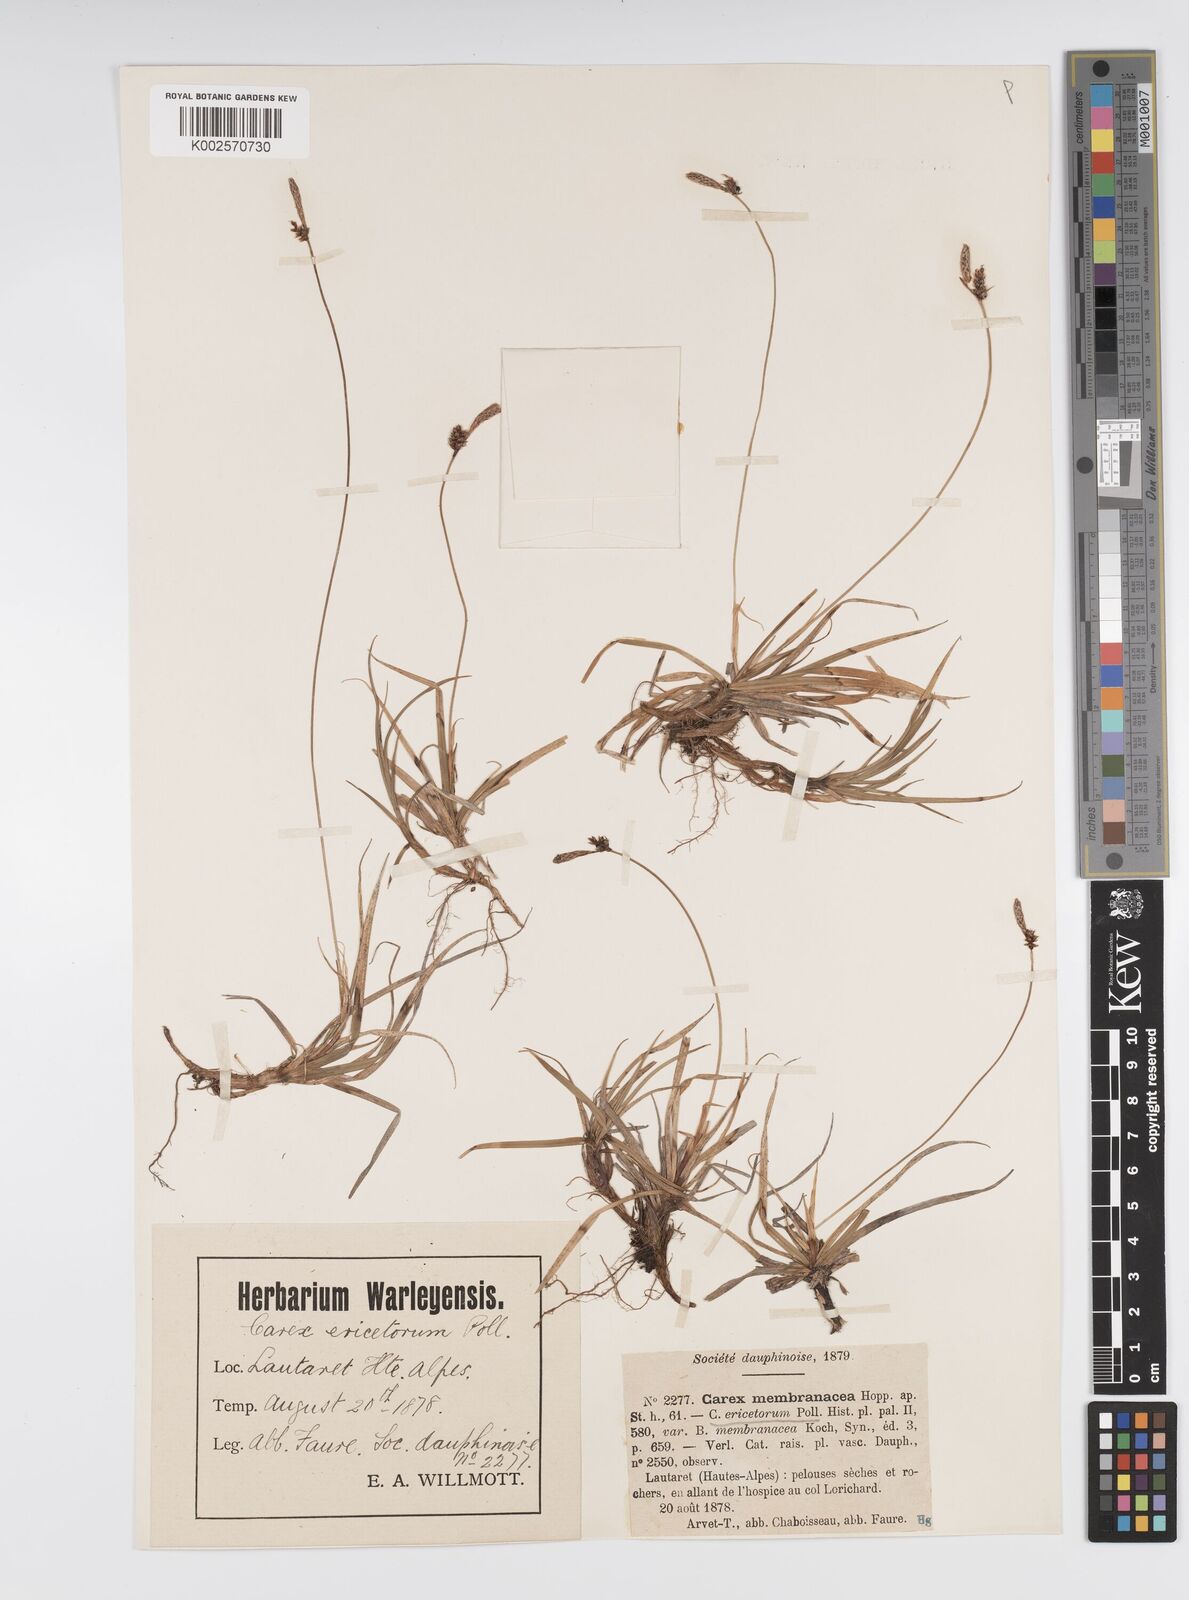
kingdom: Plantae
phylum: Tracheophyta
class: Liliopsida
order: Poales
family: Cyperaceae
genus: Carex
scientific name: Carex ericetorum
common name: Rare spring-sedge
